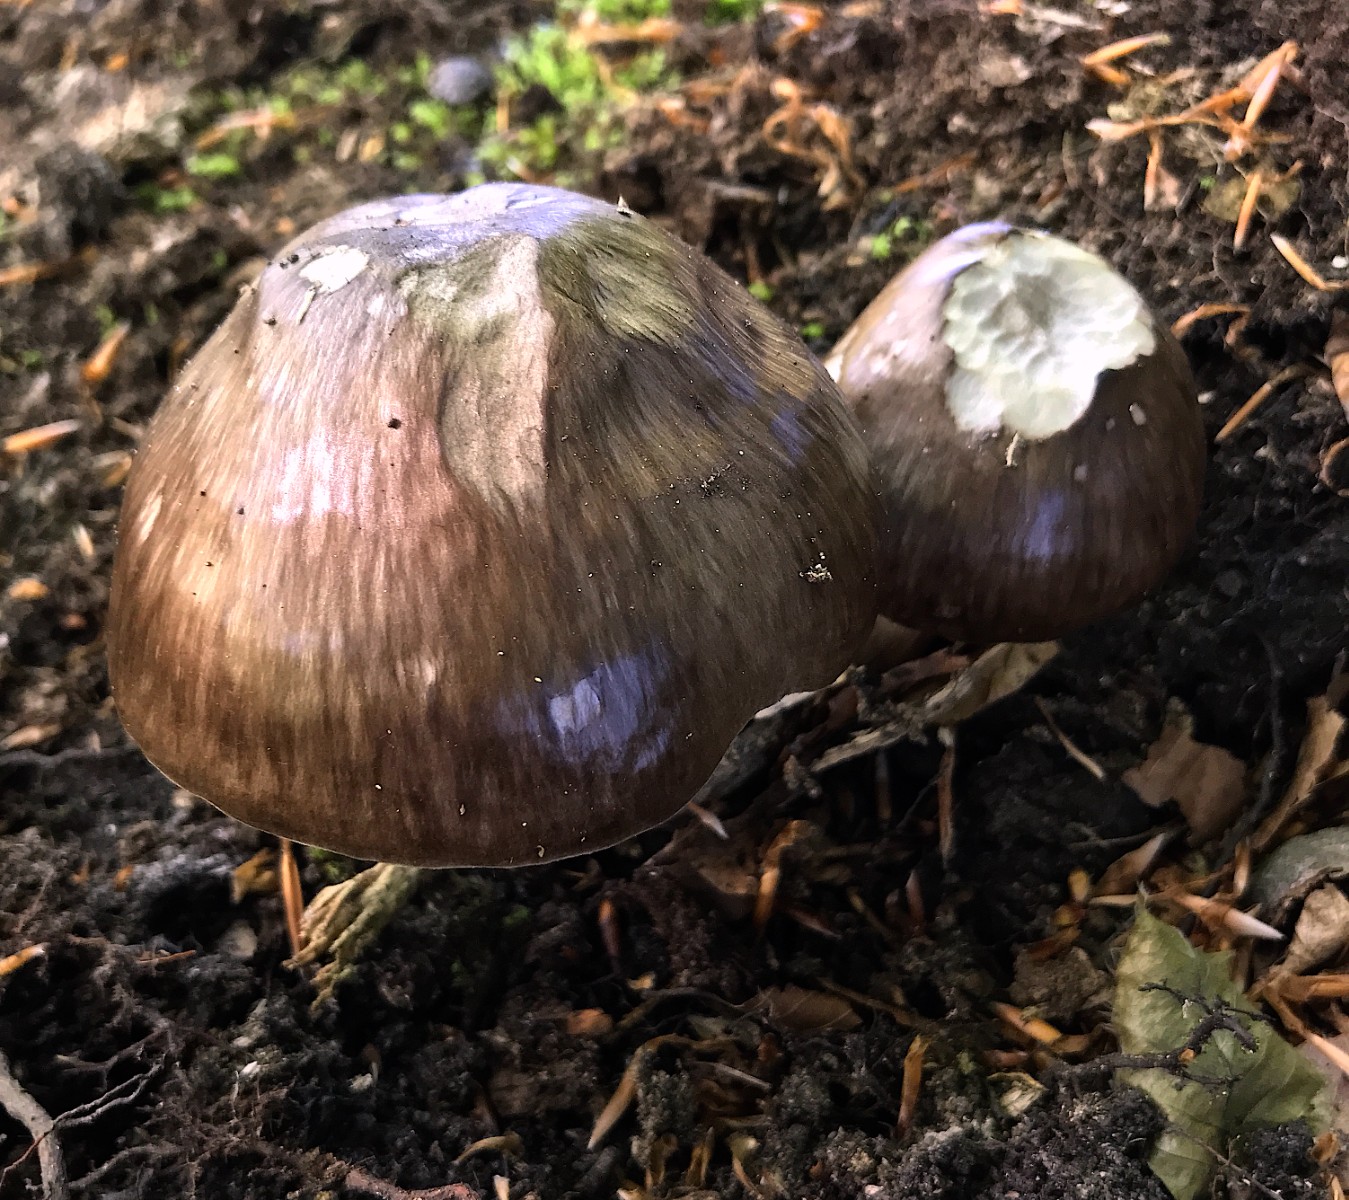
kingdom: Fungi
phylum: Basidiomycota
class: Agaricomycetes
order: Agaricales
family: Pluteaceae
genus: Pluteus
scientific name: Pluteus cervinus
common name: sodfarvet skærmhat
